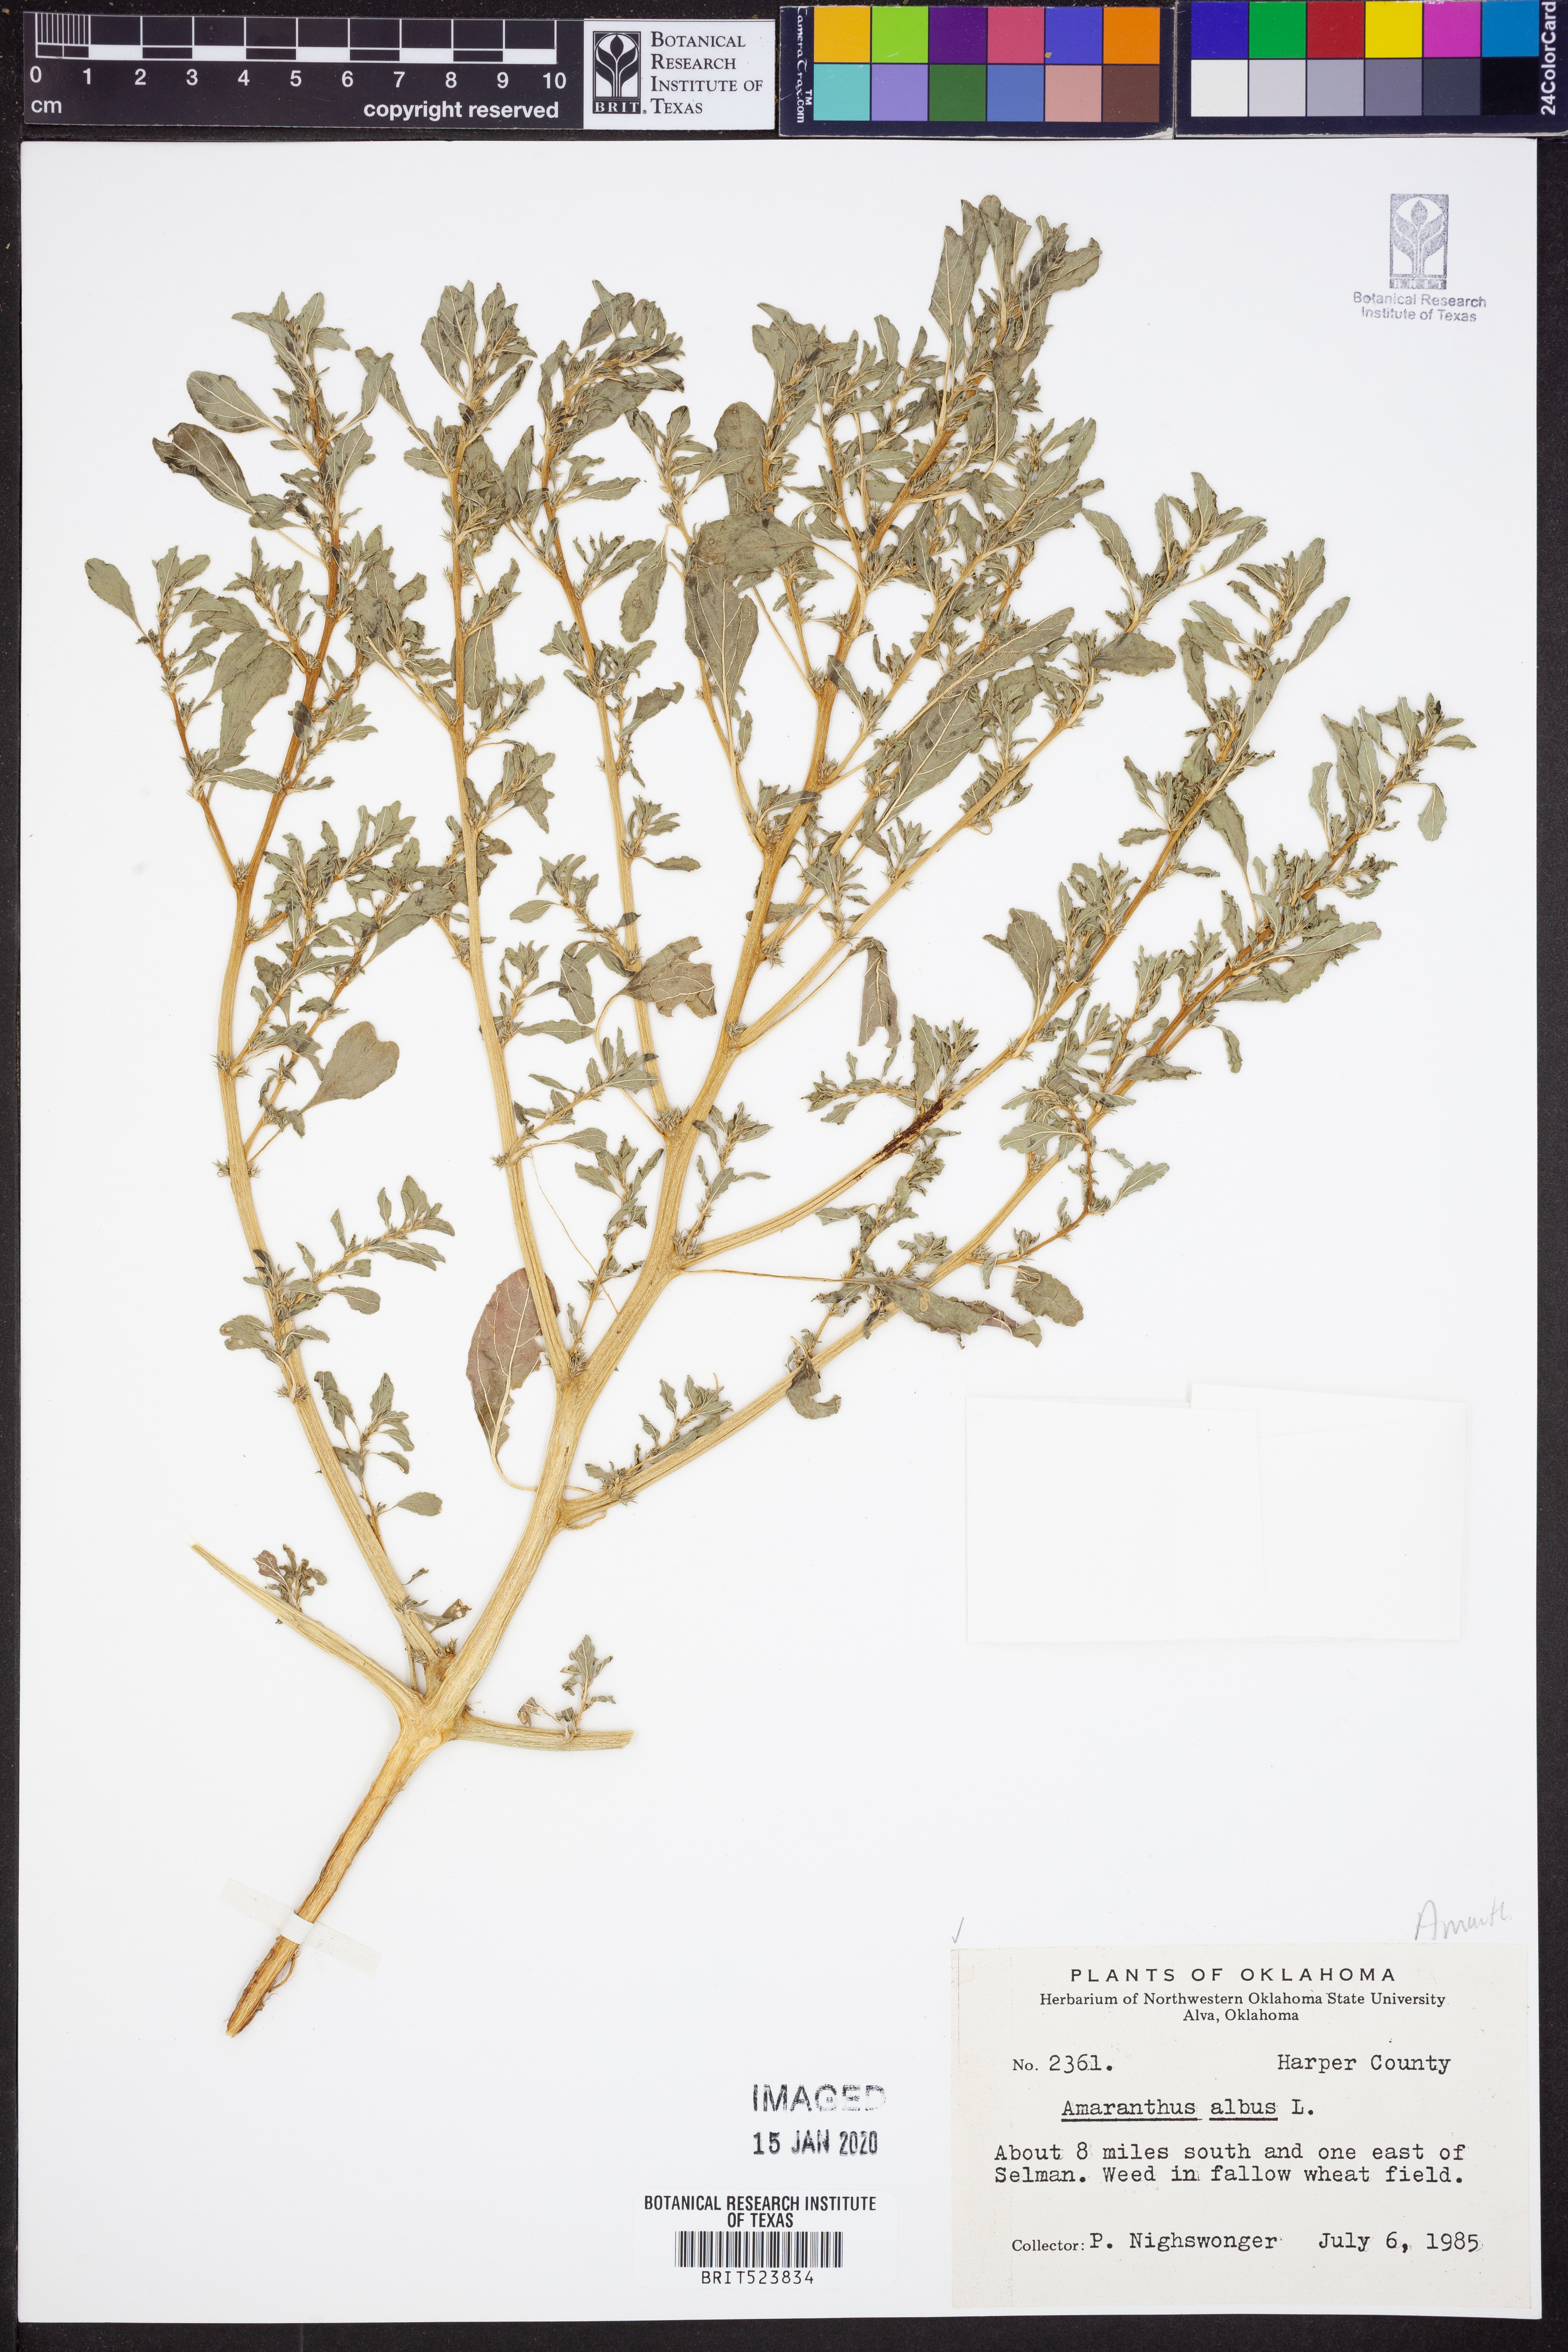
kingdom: Plantae
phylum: Tracheophyta
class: Magnoliopsida
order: Caryophyllales
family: Amaranthaceae
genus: Amaranthus
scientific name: Amaranthus albus
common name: White pigweed
